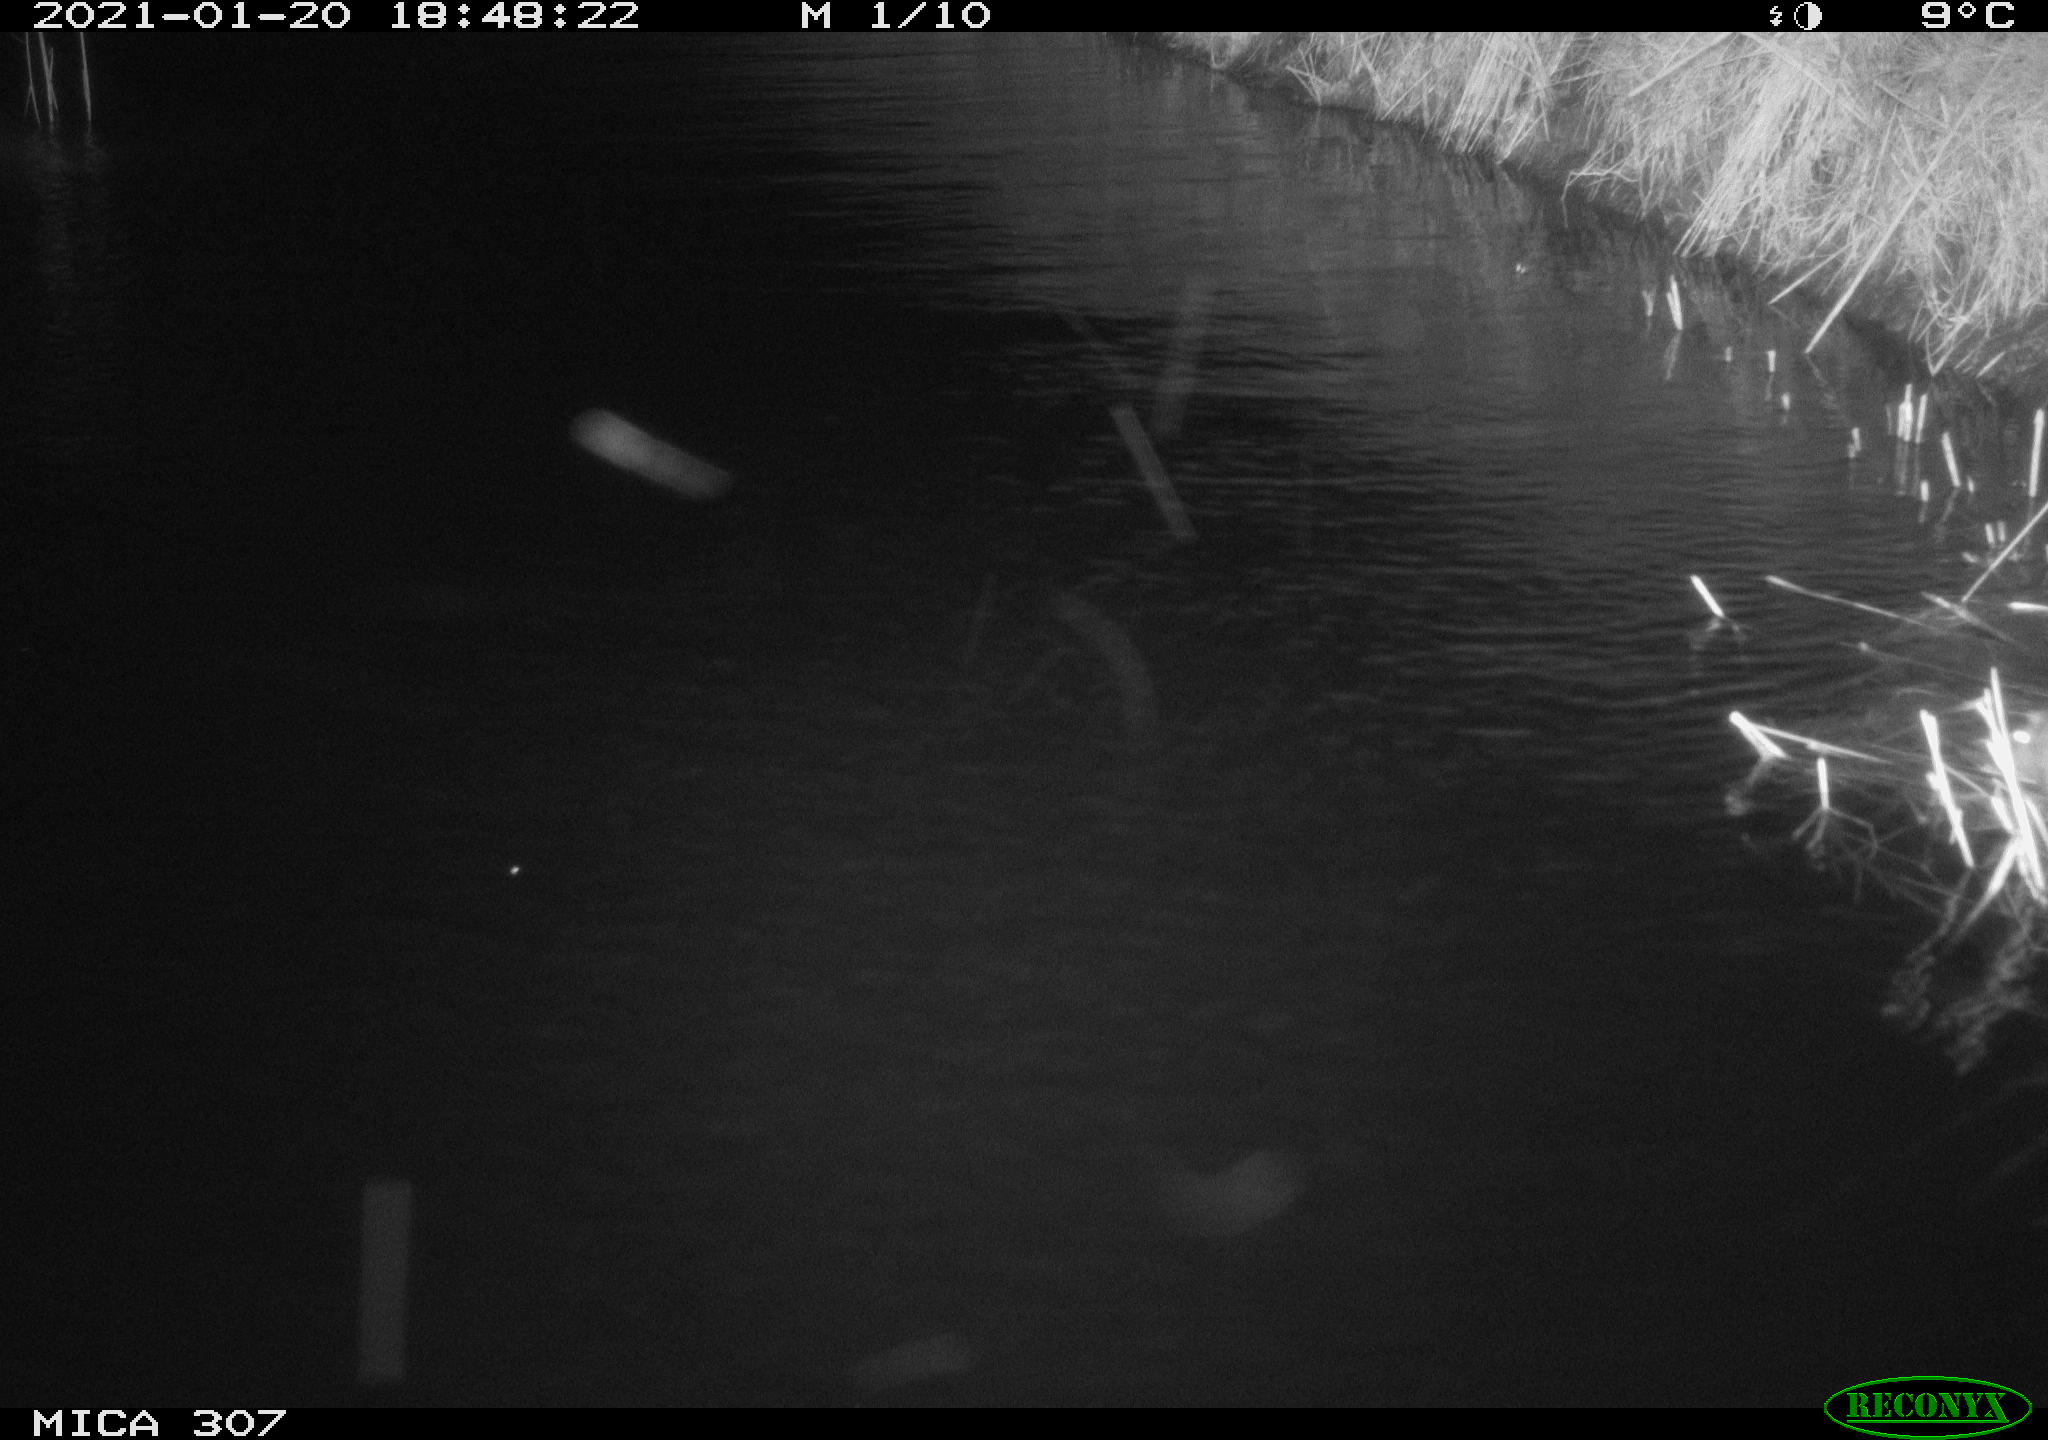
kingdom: Animalia
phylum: Chordata
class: Mammalia
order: Rodentia
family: Muridae
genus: Rattus
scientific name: Rattus norvegicus
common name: Brown rat
